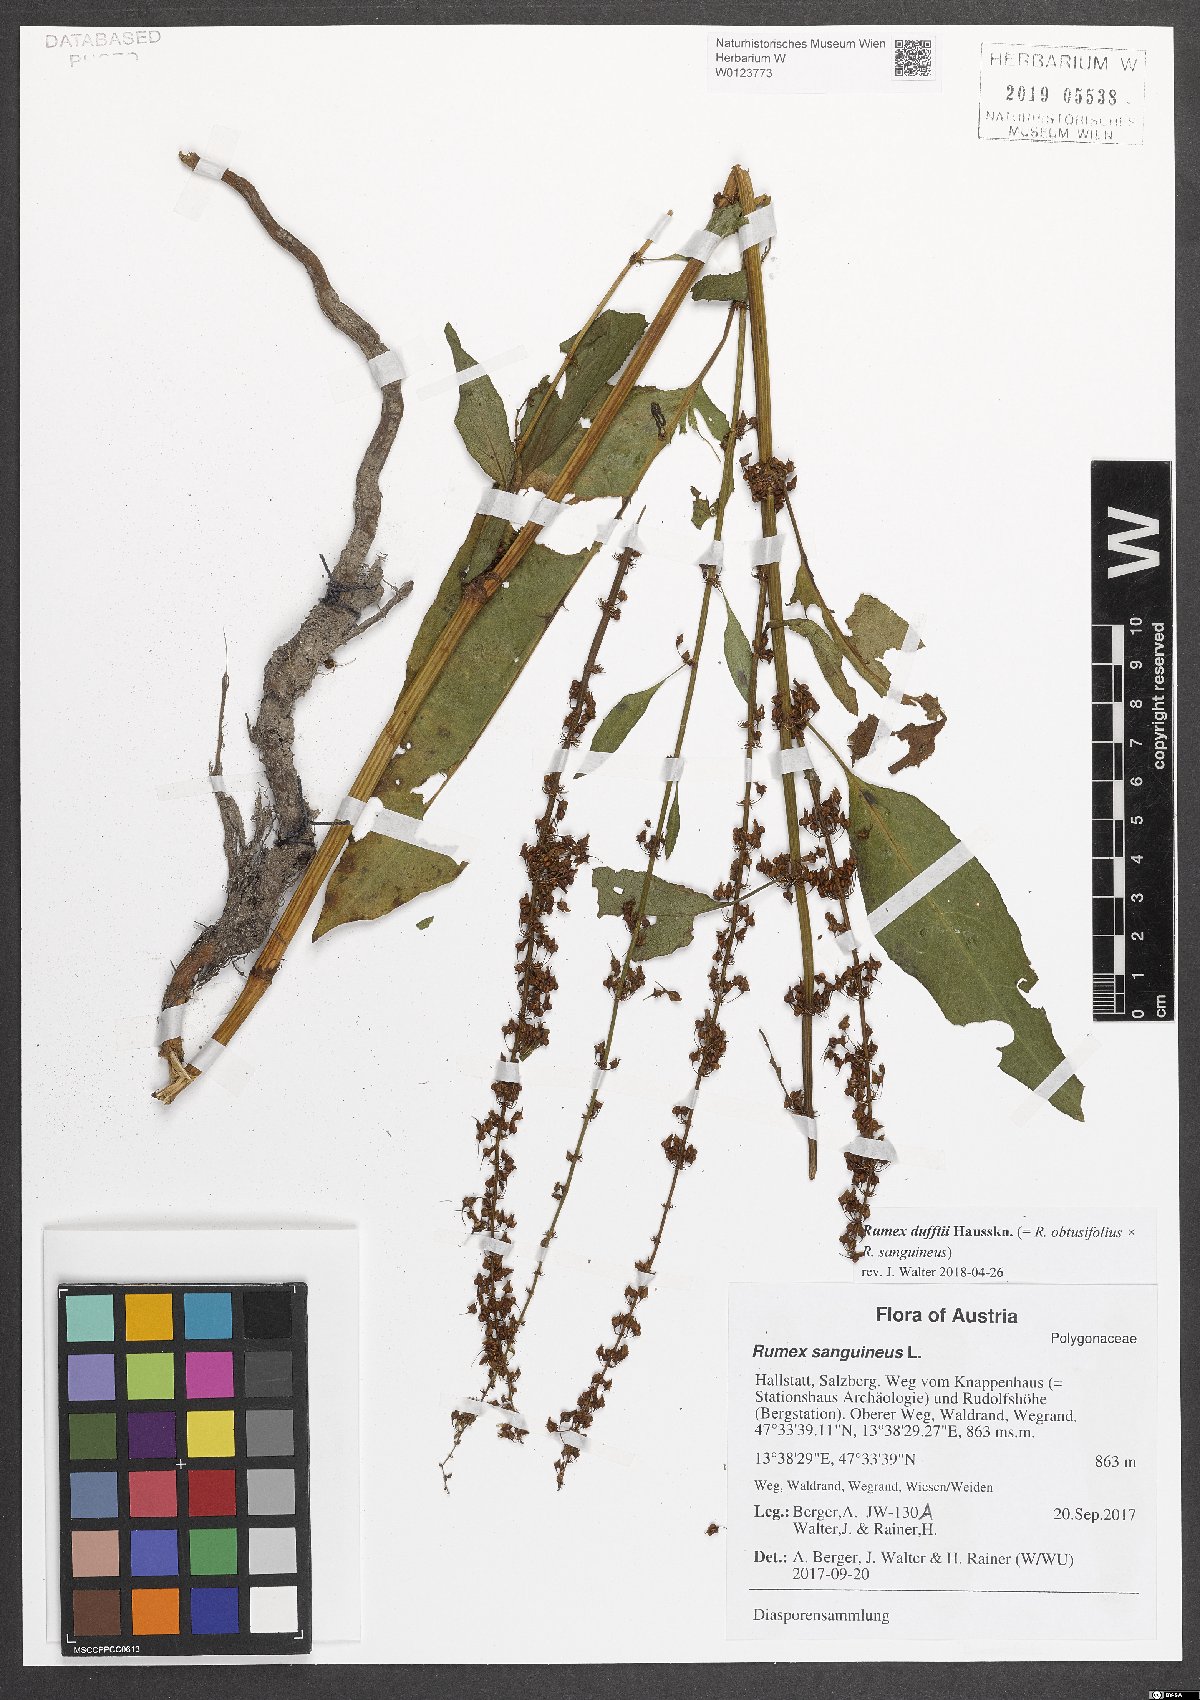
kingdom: Plantae
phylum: Tracheophyta
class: Magnoliopsida
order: Caryophyllales
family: Polygonaceae
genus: Rumex
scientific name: Rumex dufftii
